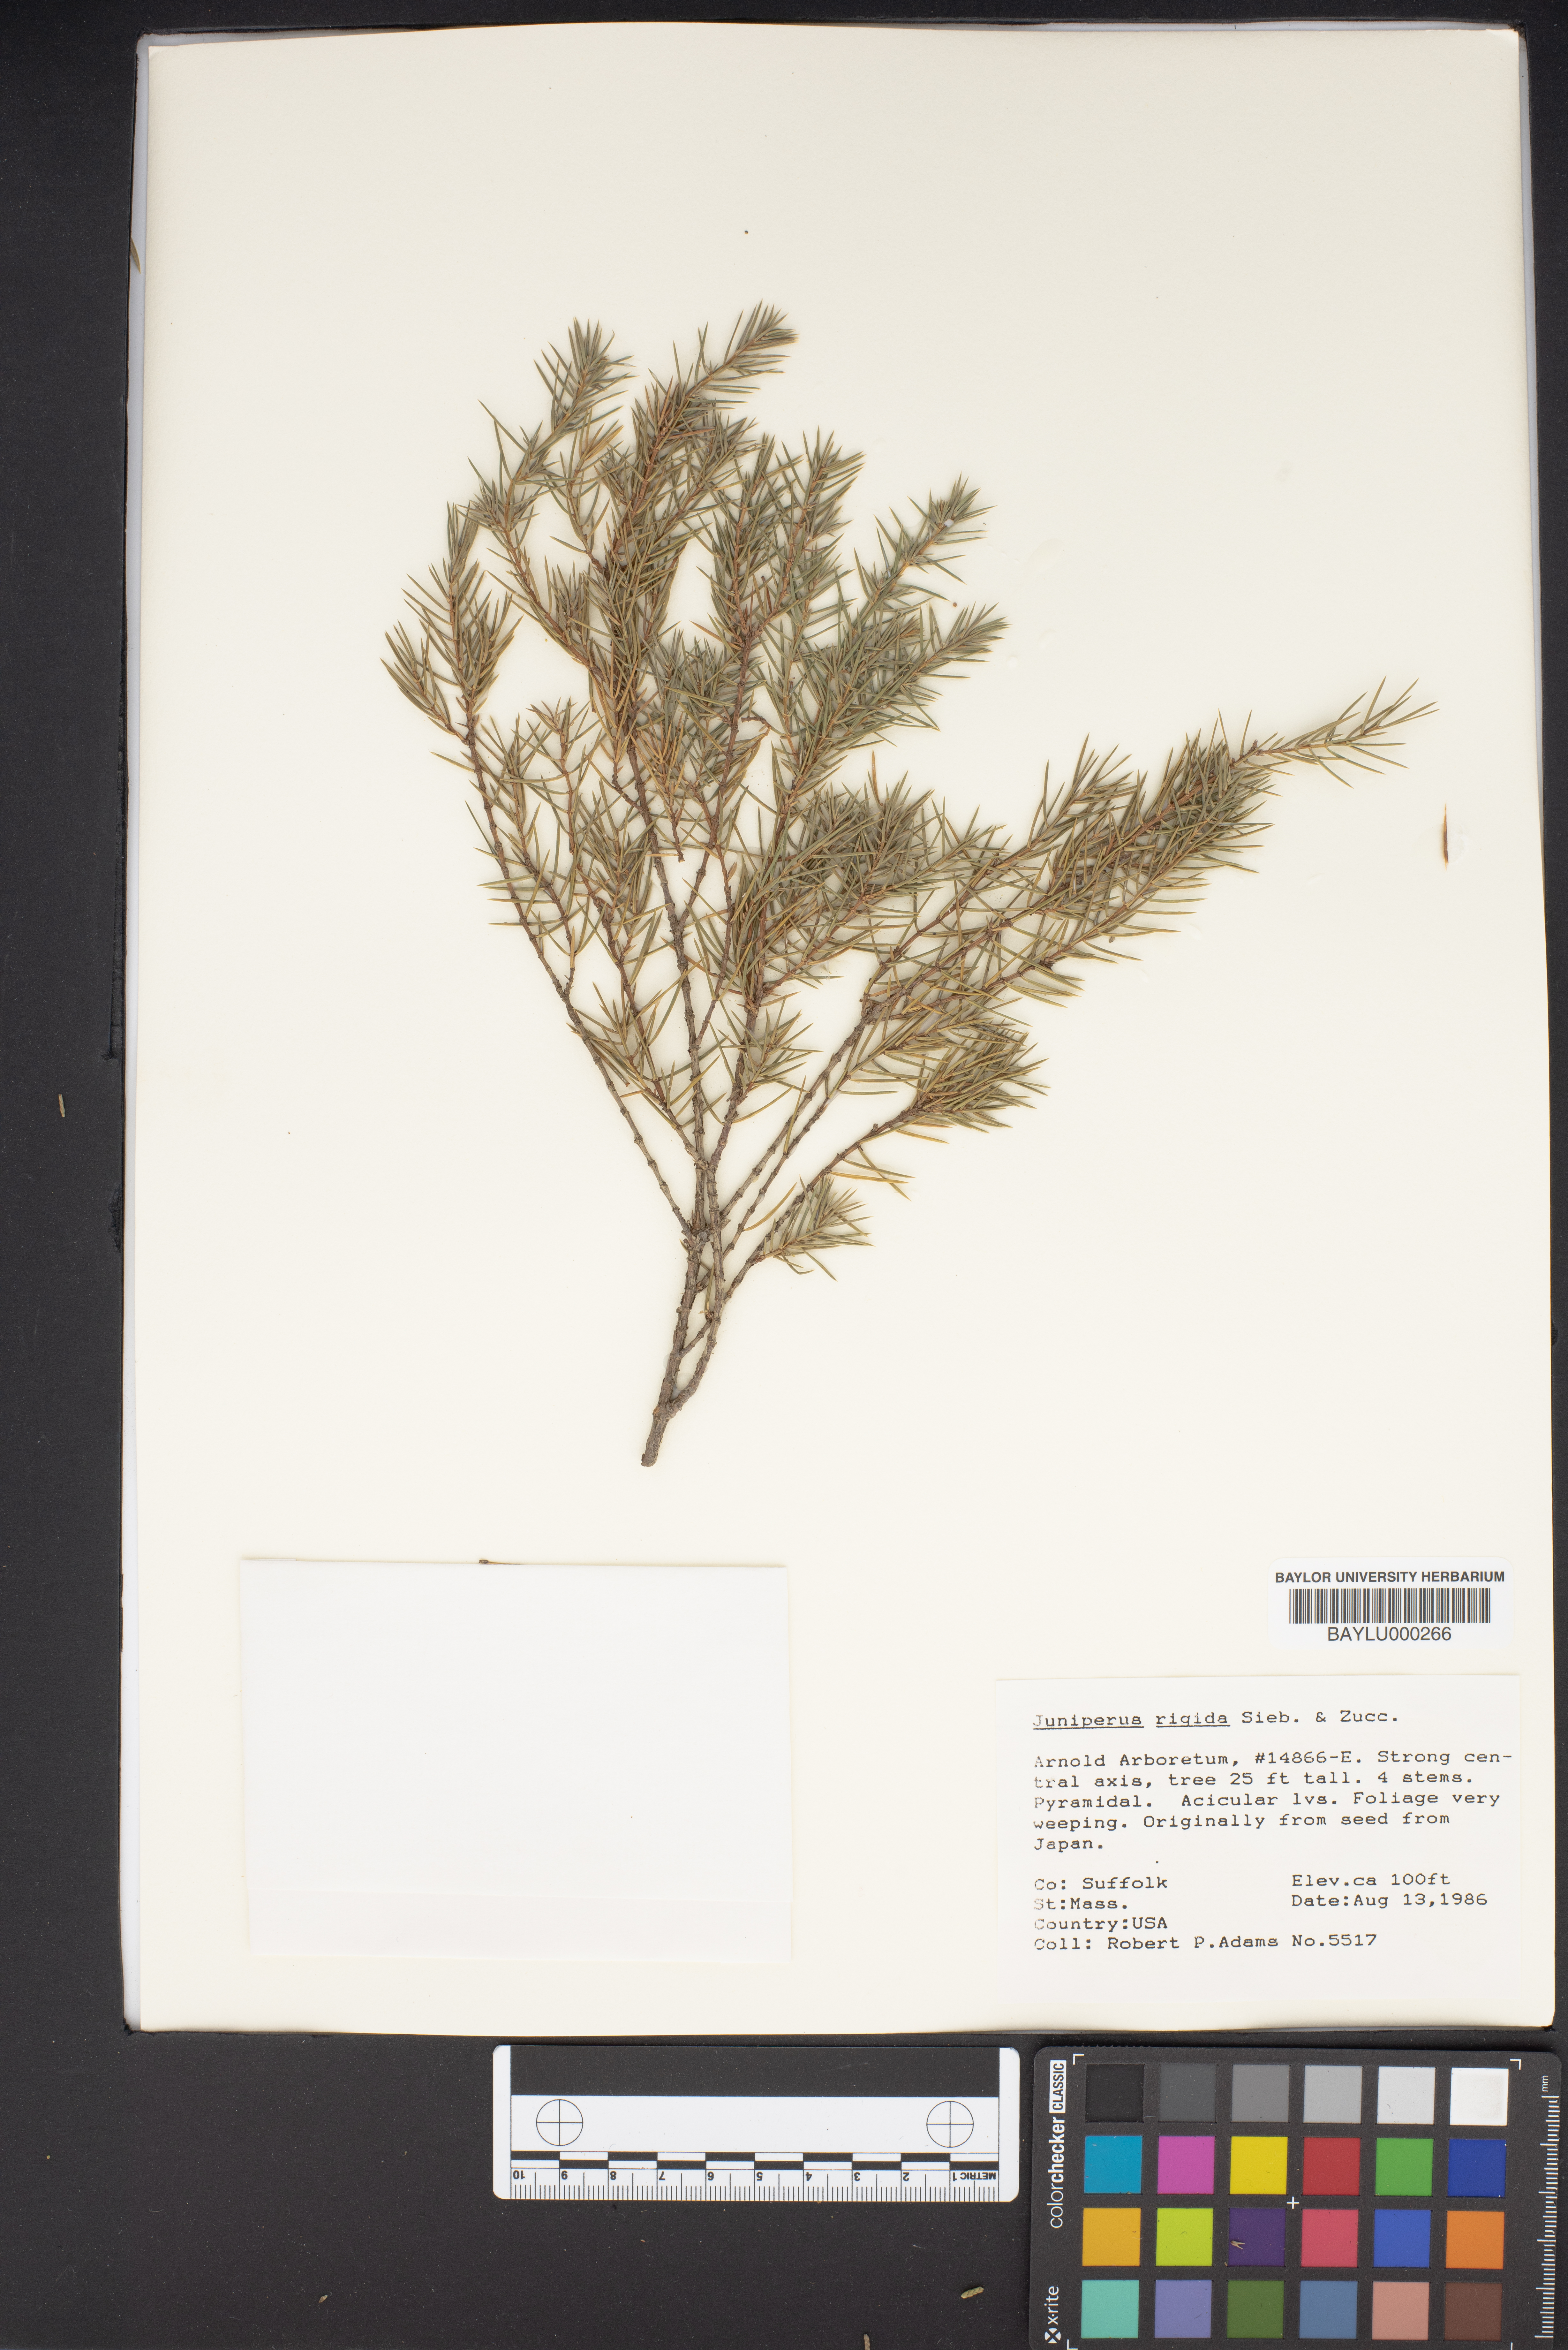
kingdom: Plantae
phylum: Tracheophyta
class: Pinopsida
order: Pinales
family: Cupressaceae
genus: Juniperus
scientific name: Juniperus rigida
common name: Needle juniper
